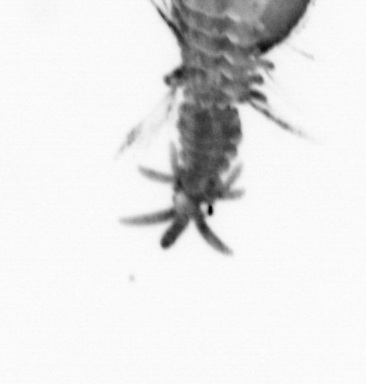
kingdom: Animalia
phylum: Annelida
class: Polychaeta
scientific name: Polychaeta
